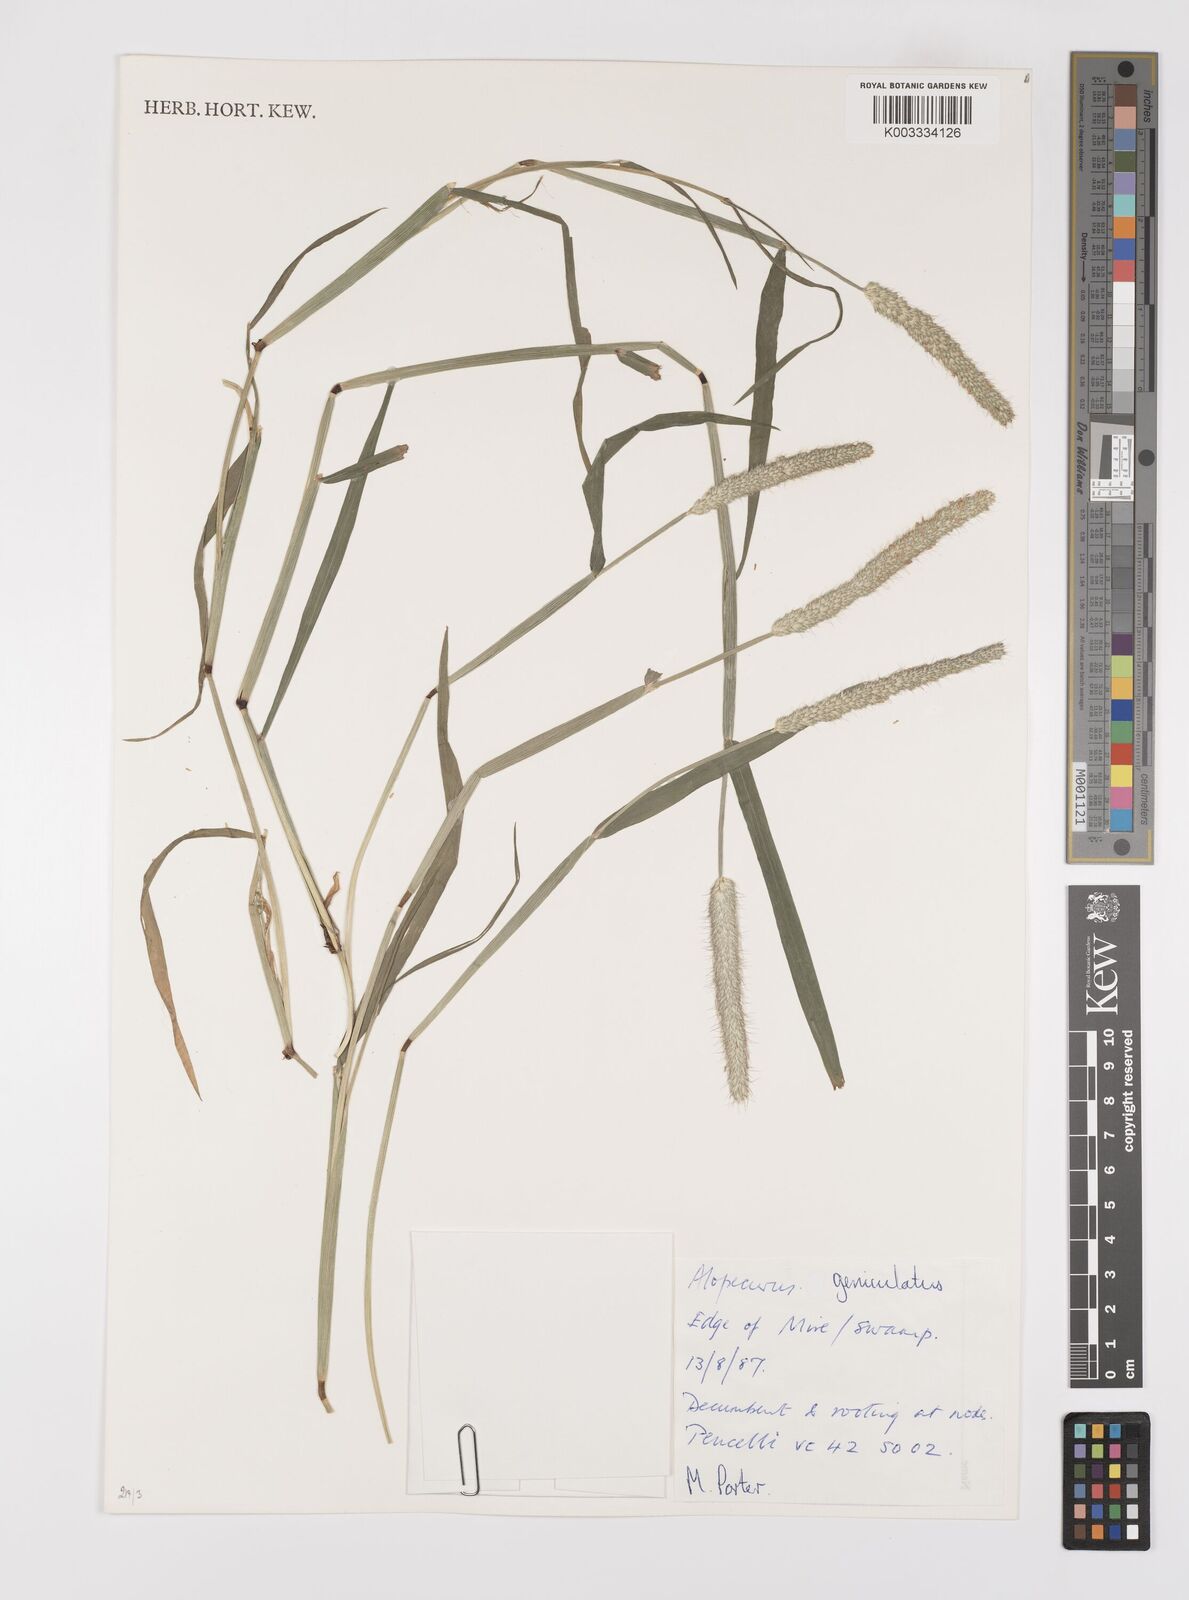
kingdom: Plantae
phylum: Tracheophyta
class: Liliopsida
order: Poales
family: Poaceae
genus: Alopecurus
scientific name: Alopecurus geniculatus
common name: Water foxtail
